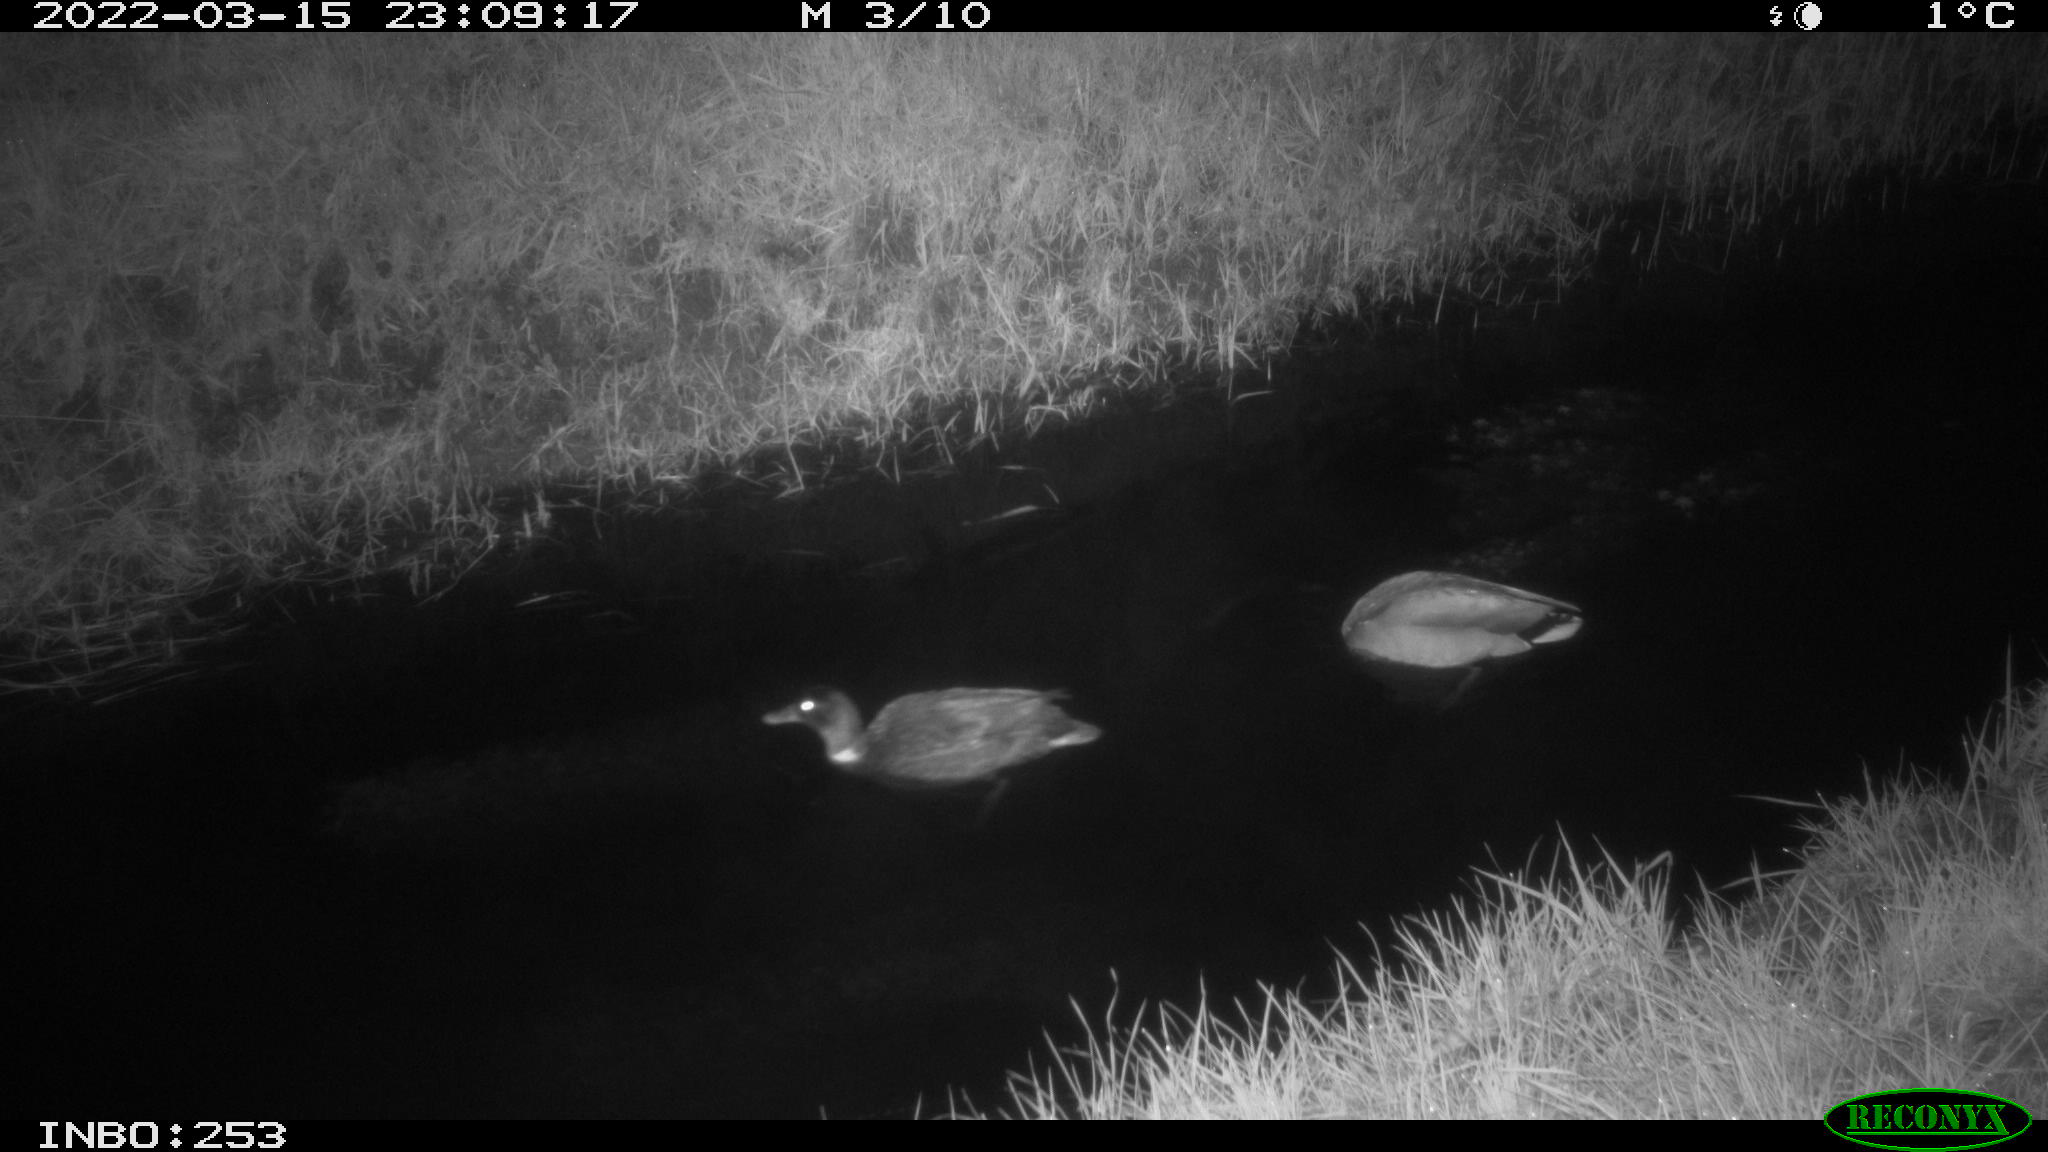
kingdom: Animalia
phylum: Chordata
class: Aves
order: Anseriformes
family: Anatidae
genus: Anas
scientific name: Anas platyrhynchos
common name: Mallard
